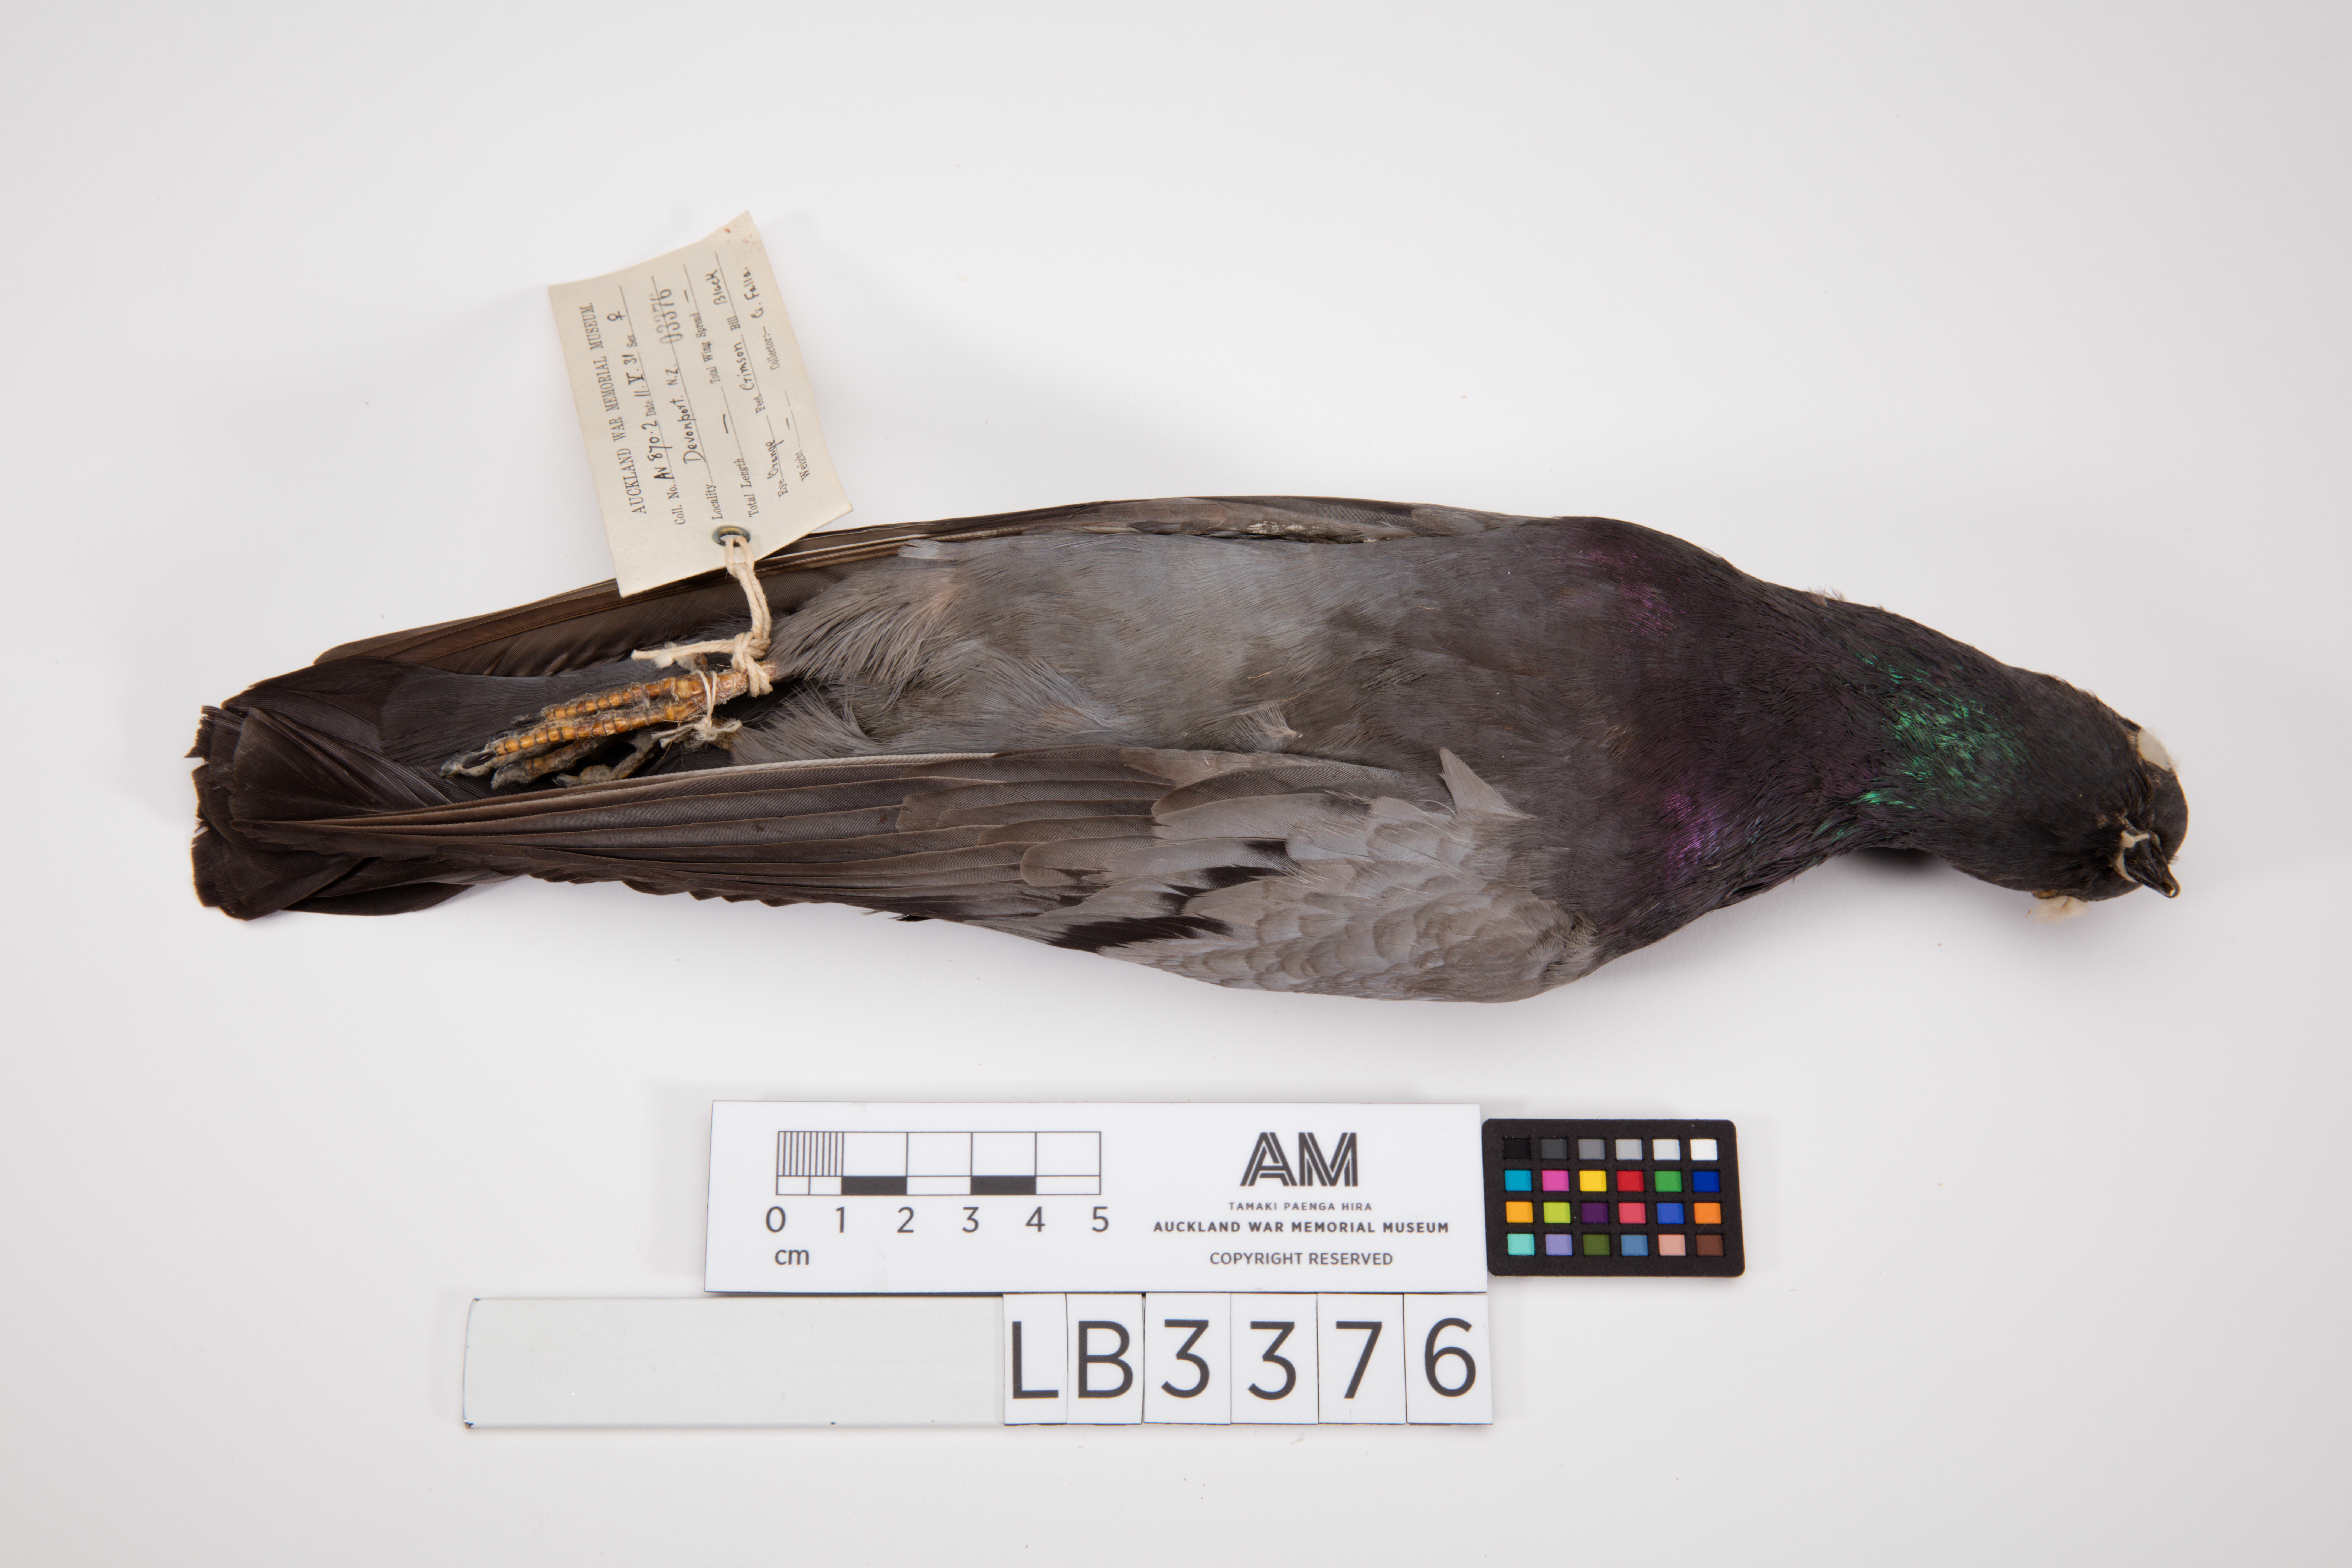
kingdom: Animalia
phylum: Chordata
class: Aves
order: Columbiformes
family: Columbidae
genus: Columba
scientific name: Columba livia
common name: Rock pigeon
